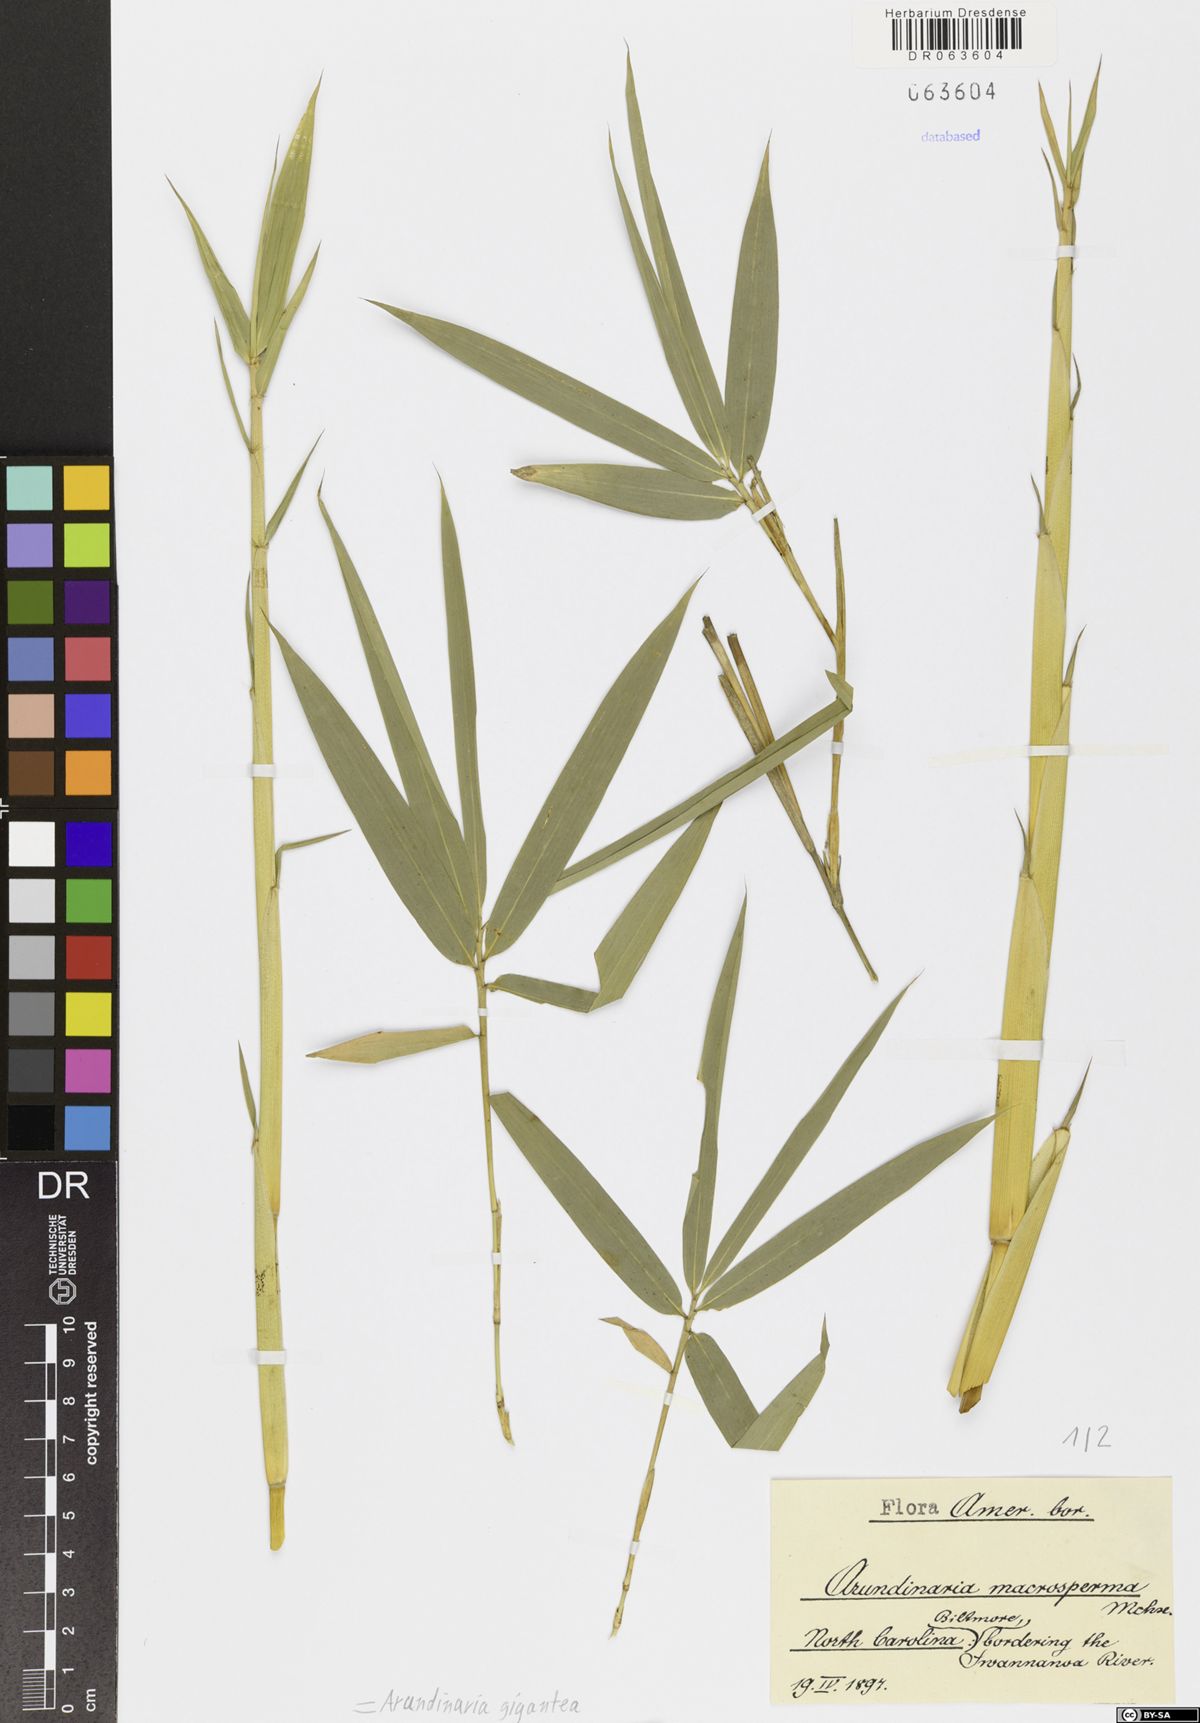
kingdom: Plantae
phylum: Tracheophyta
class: Liliopsida
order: Poales
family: Poaceae
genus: Arundinaria
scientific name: Arundinaria gigantea
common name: Giant cane
